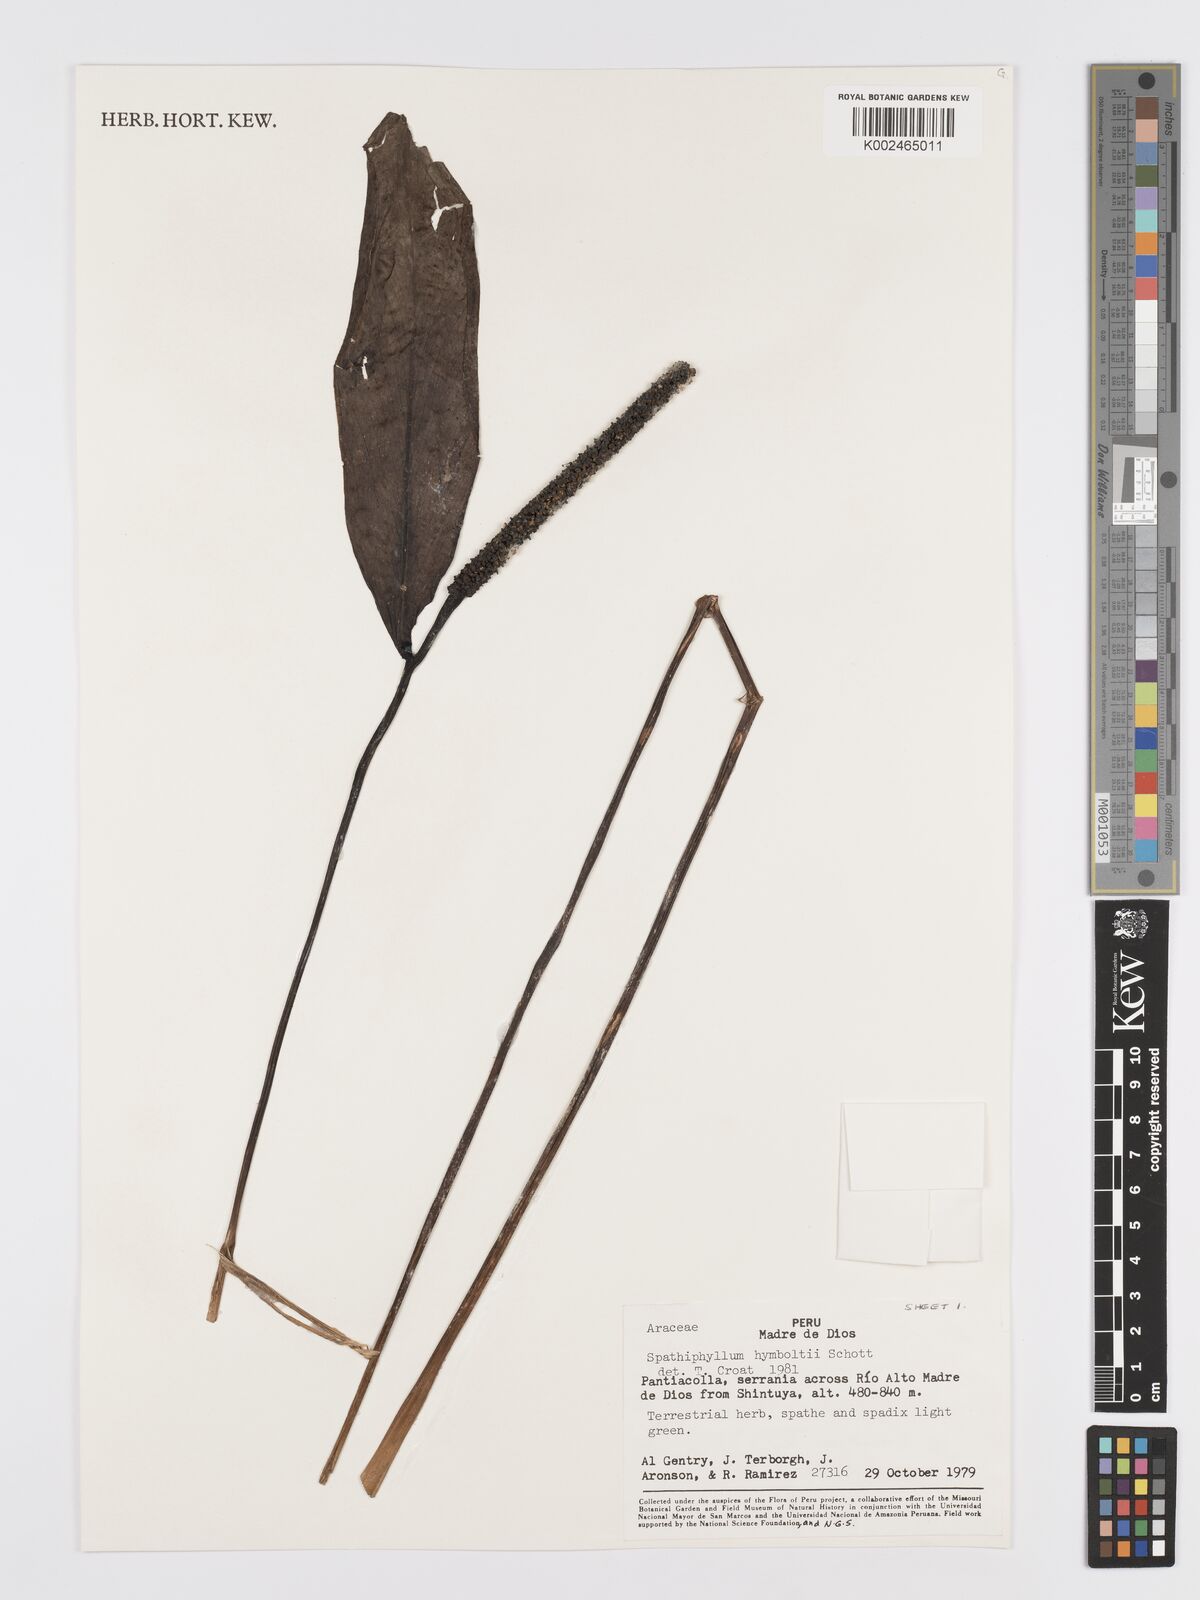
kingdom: Plantae
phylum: Tracheophyta
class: Liliopsida
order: Alismatales
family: Araceae
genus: Spathiphyllum
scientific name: Spathiphyllum humboldtii
